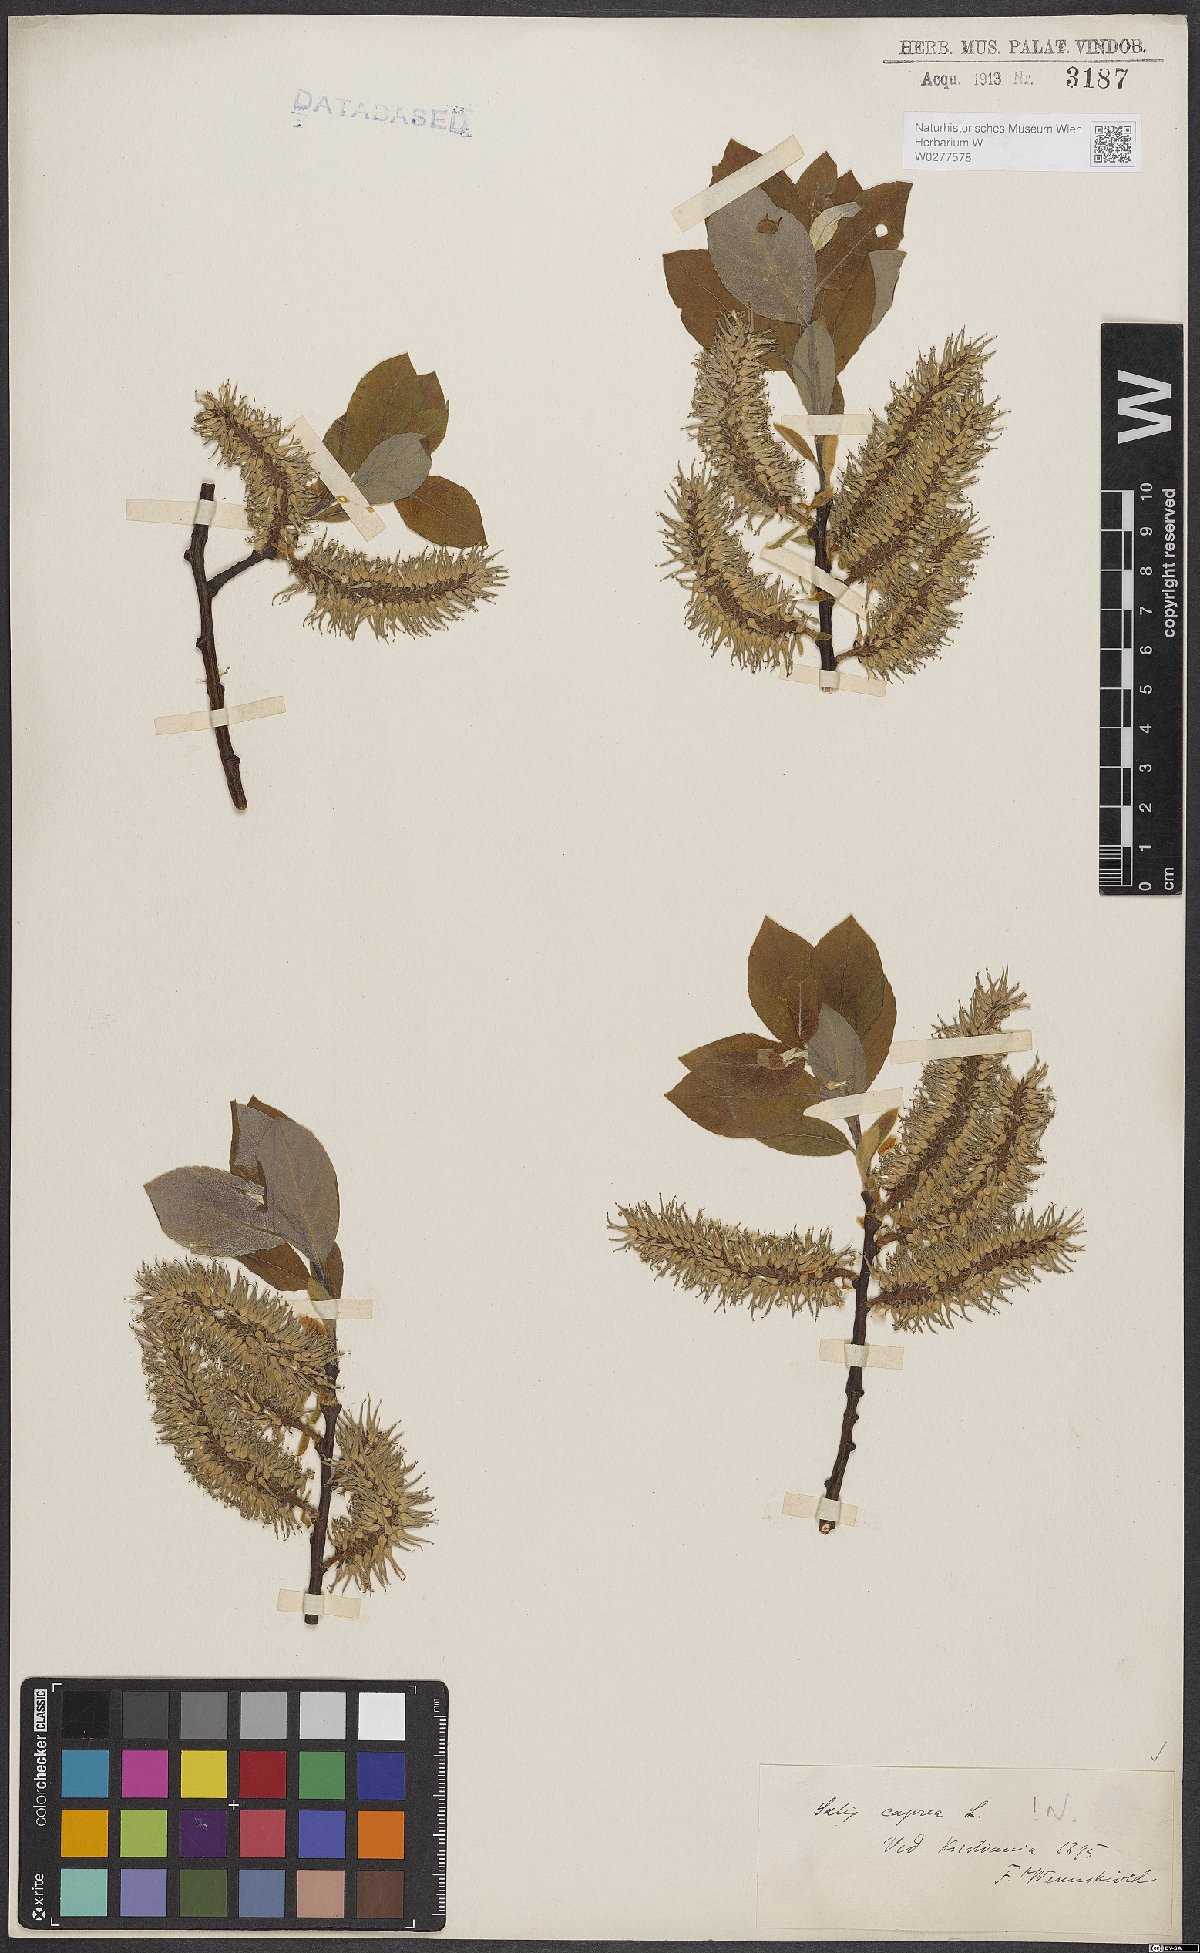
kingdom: Plantae
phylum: Tracheophyta
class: Magnoliopsida
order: Malpighiales
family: Salicaceae
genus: Salix
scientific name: Salix caprea
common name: Goat willow
